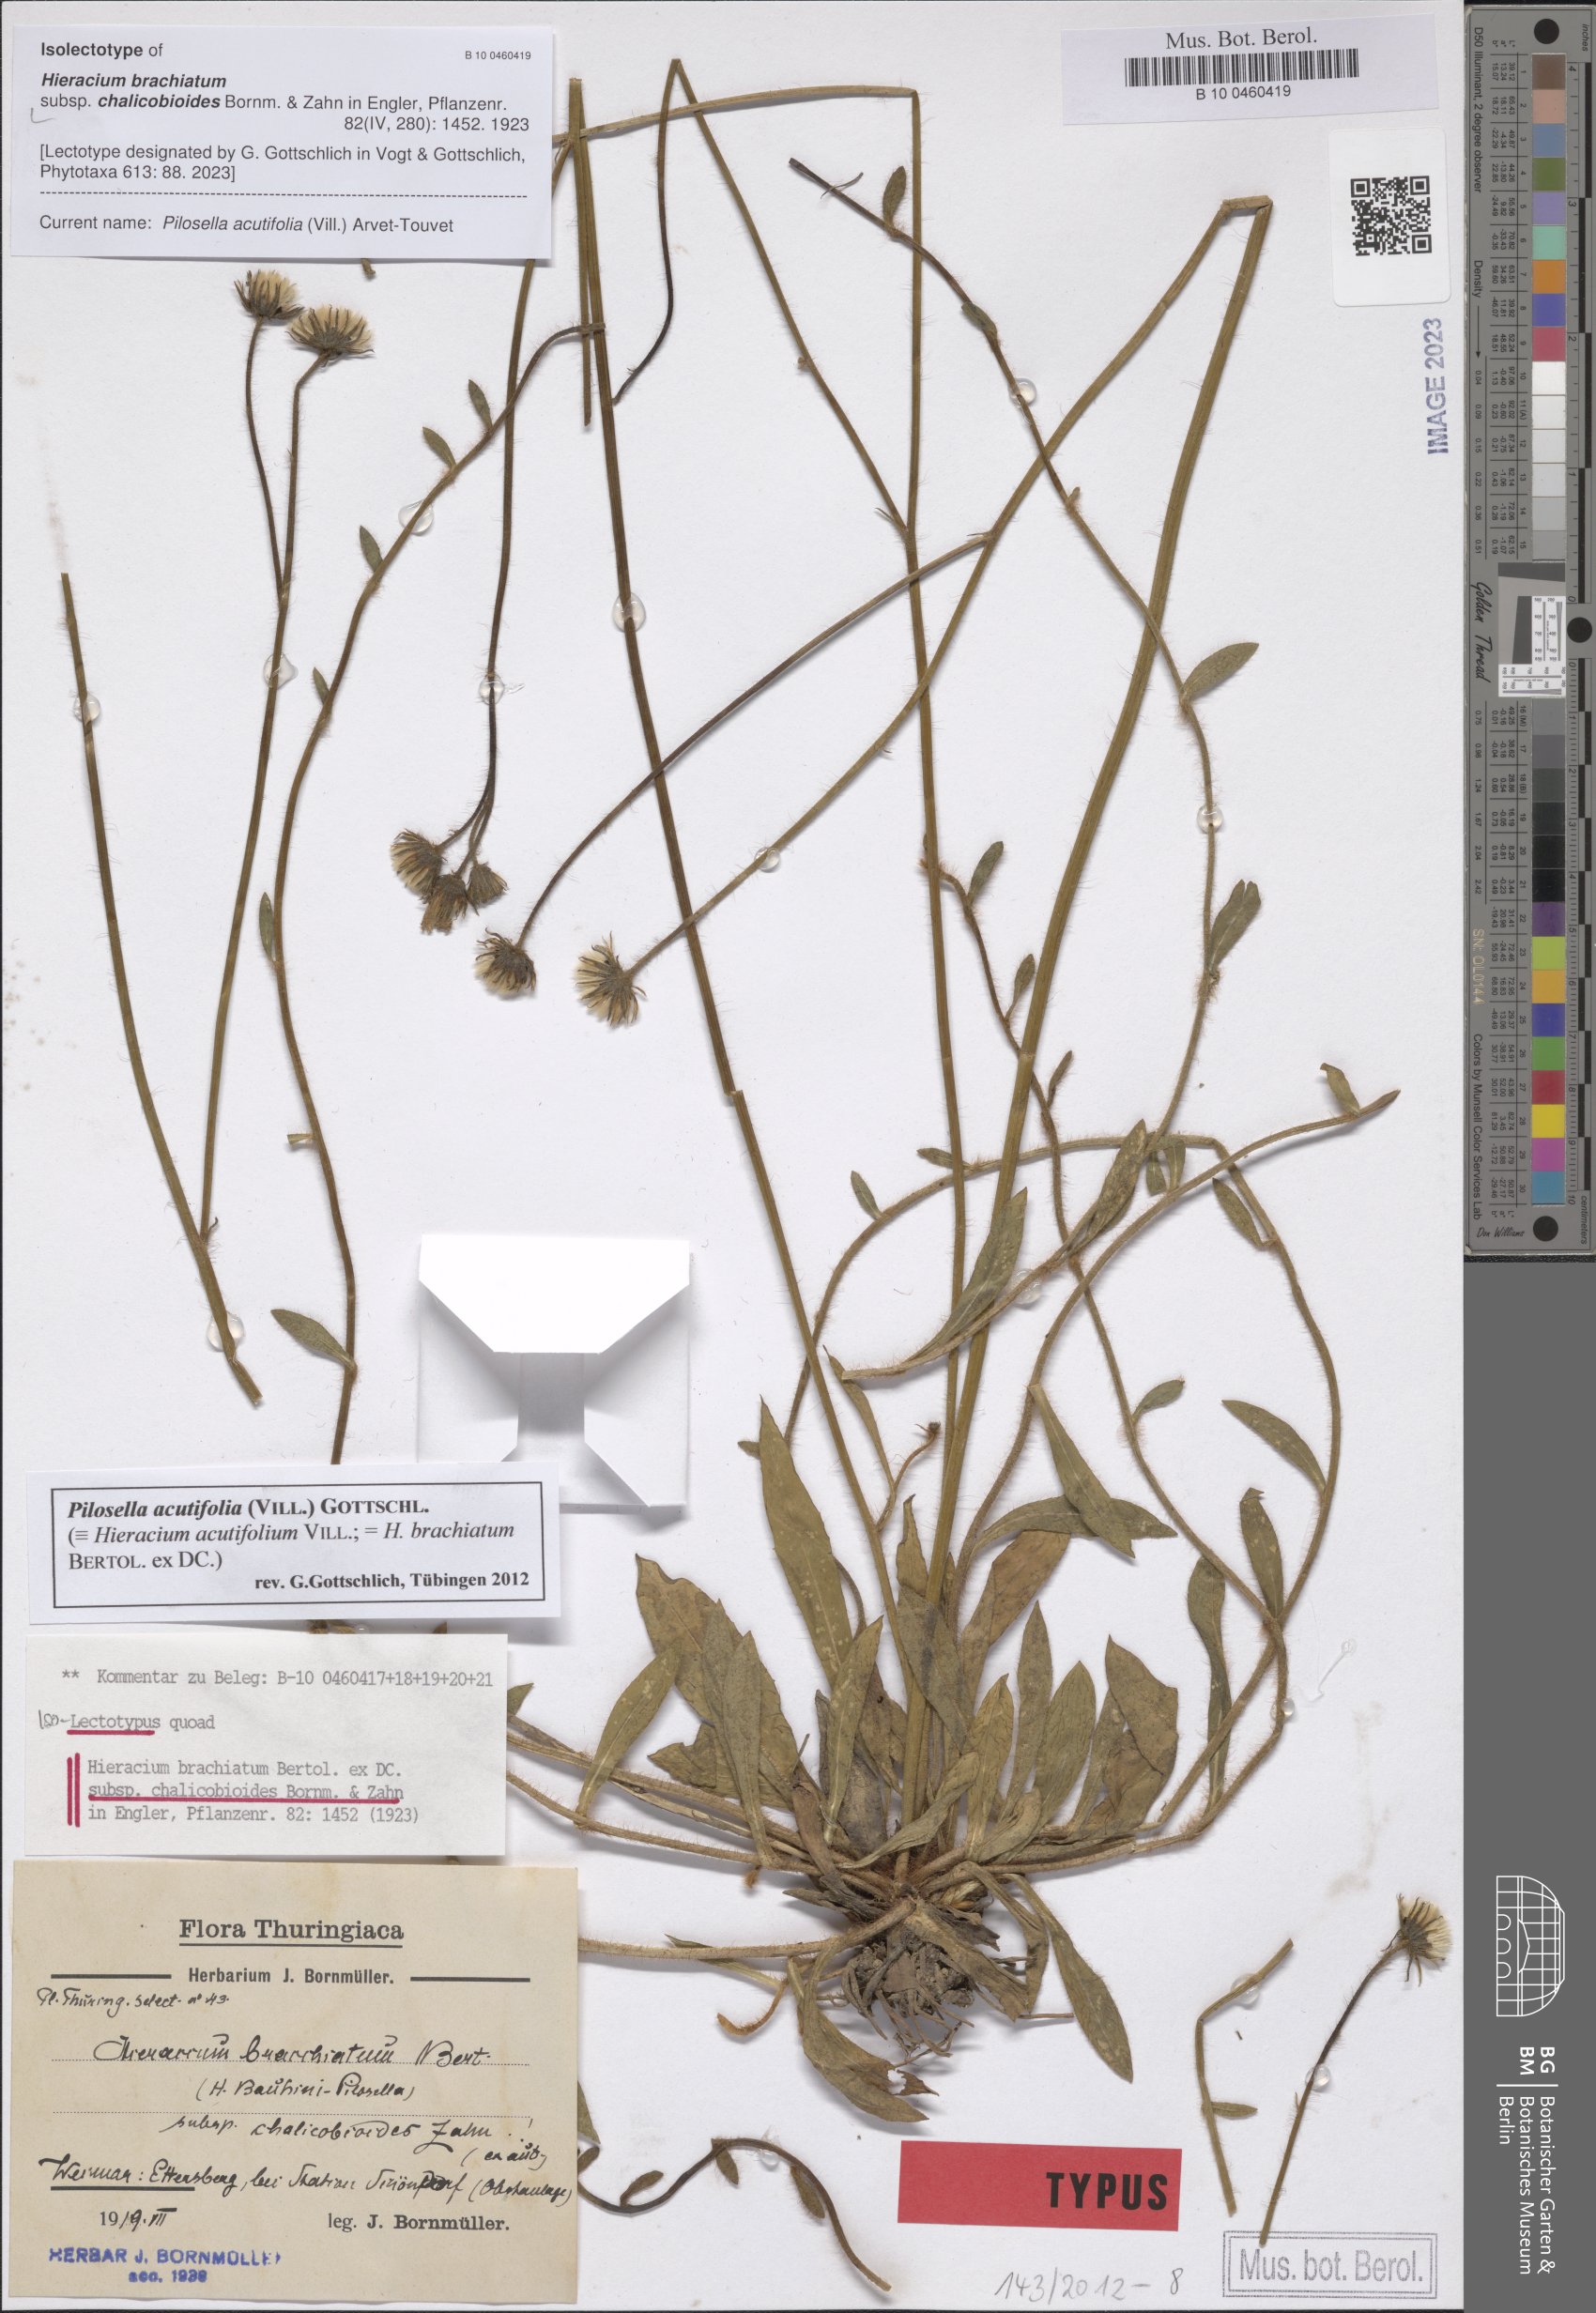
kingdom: Plantae
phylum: Tracheophyta
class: Magnoliopsida
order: Asterales
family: Asteraceae
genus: Pilosella
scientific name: Pilosella acutifolia
